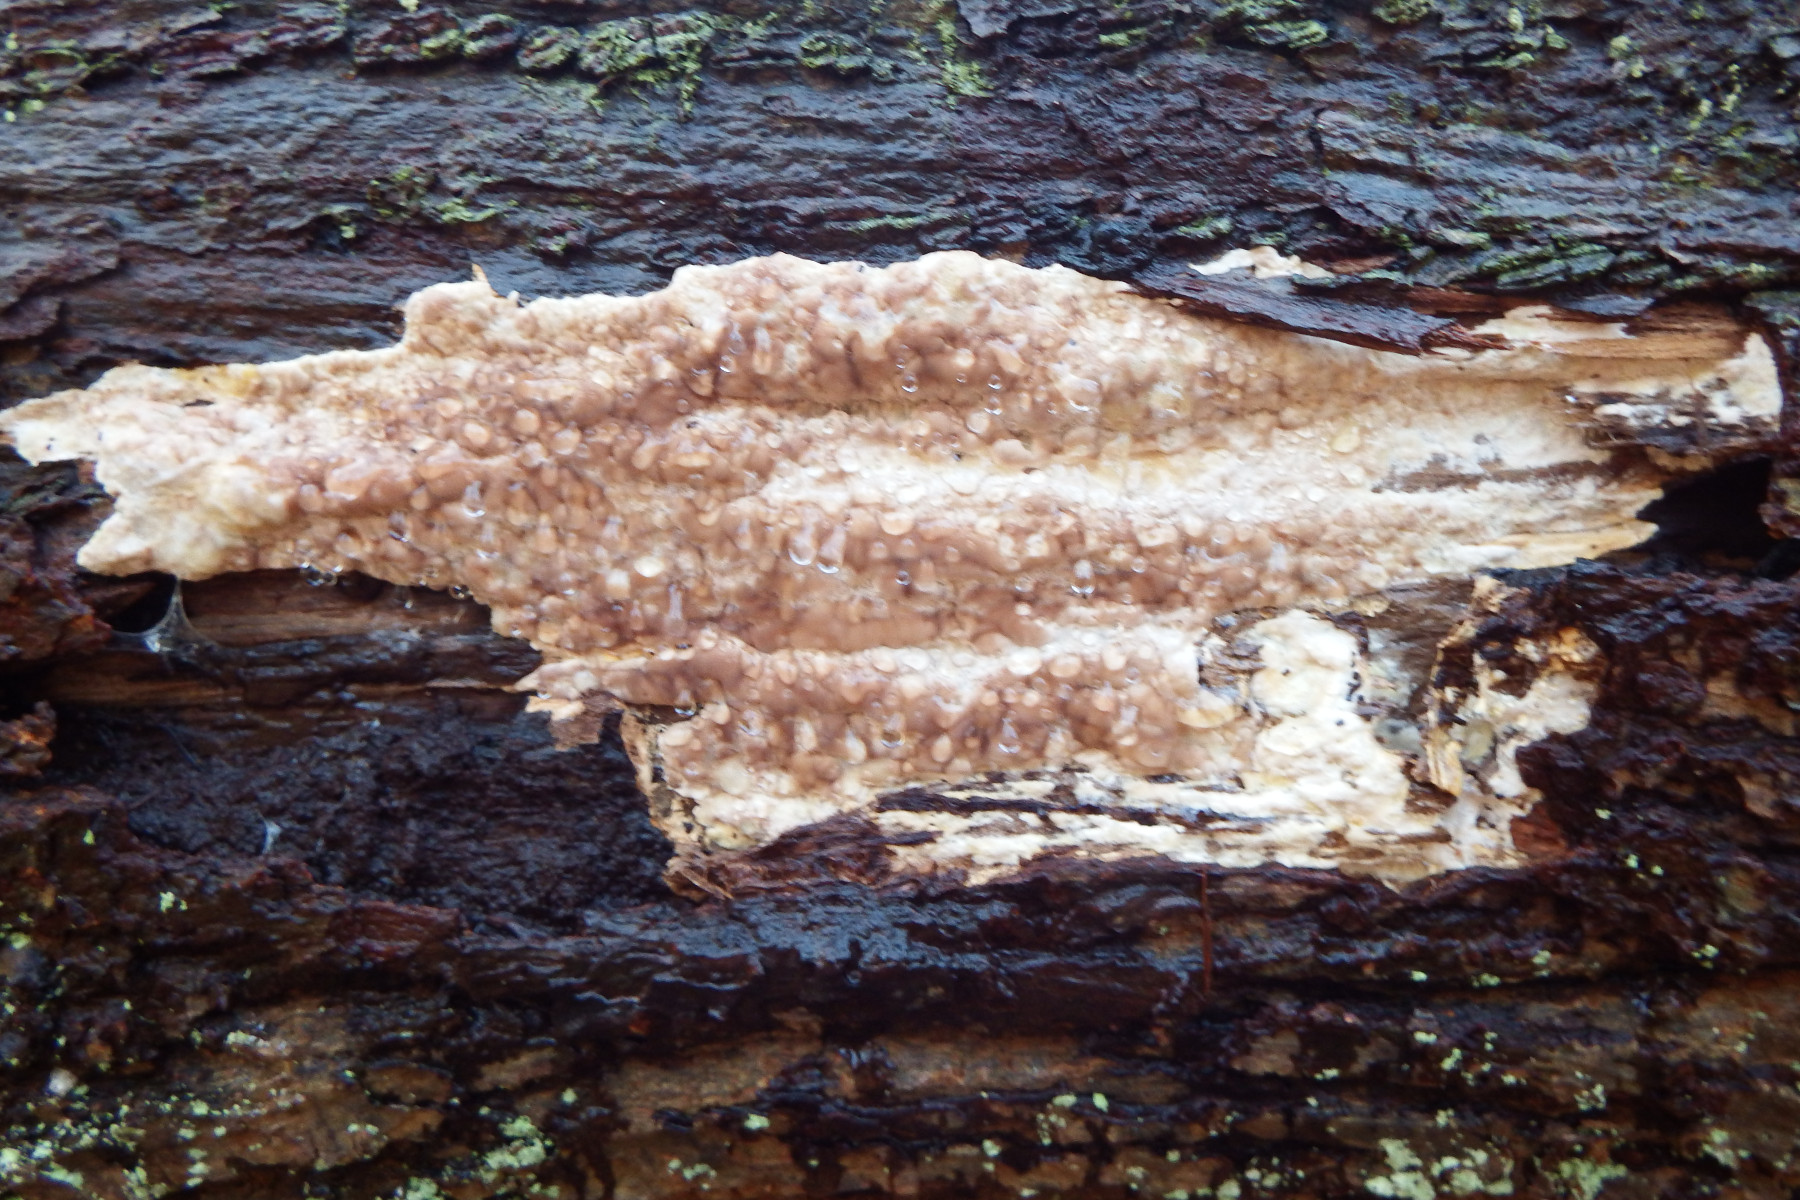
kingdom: Fungi
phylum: Basidiomycota
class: Agaricomycetes
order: Corticiales
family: Corticiaceae
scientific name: Corticiaceae
